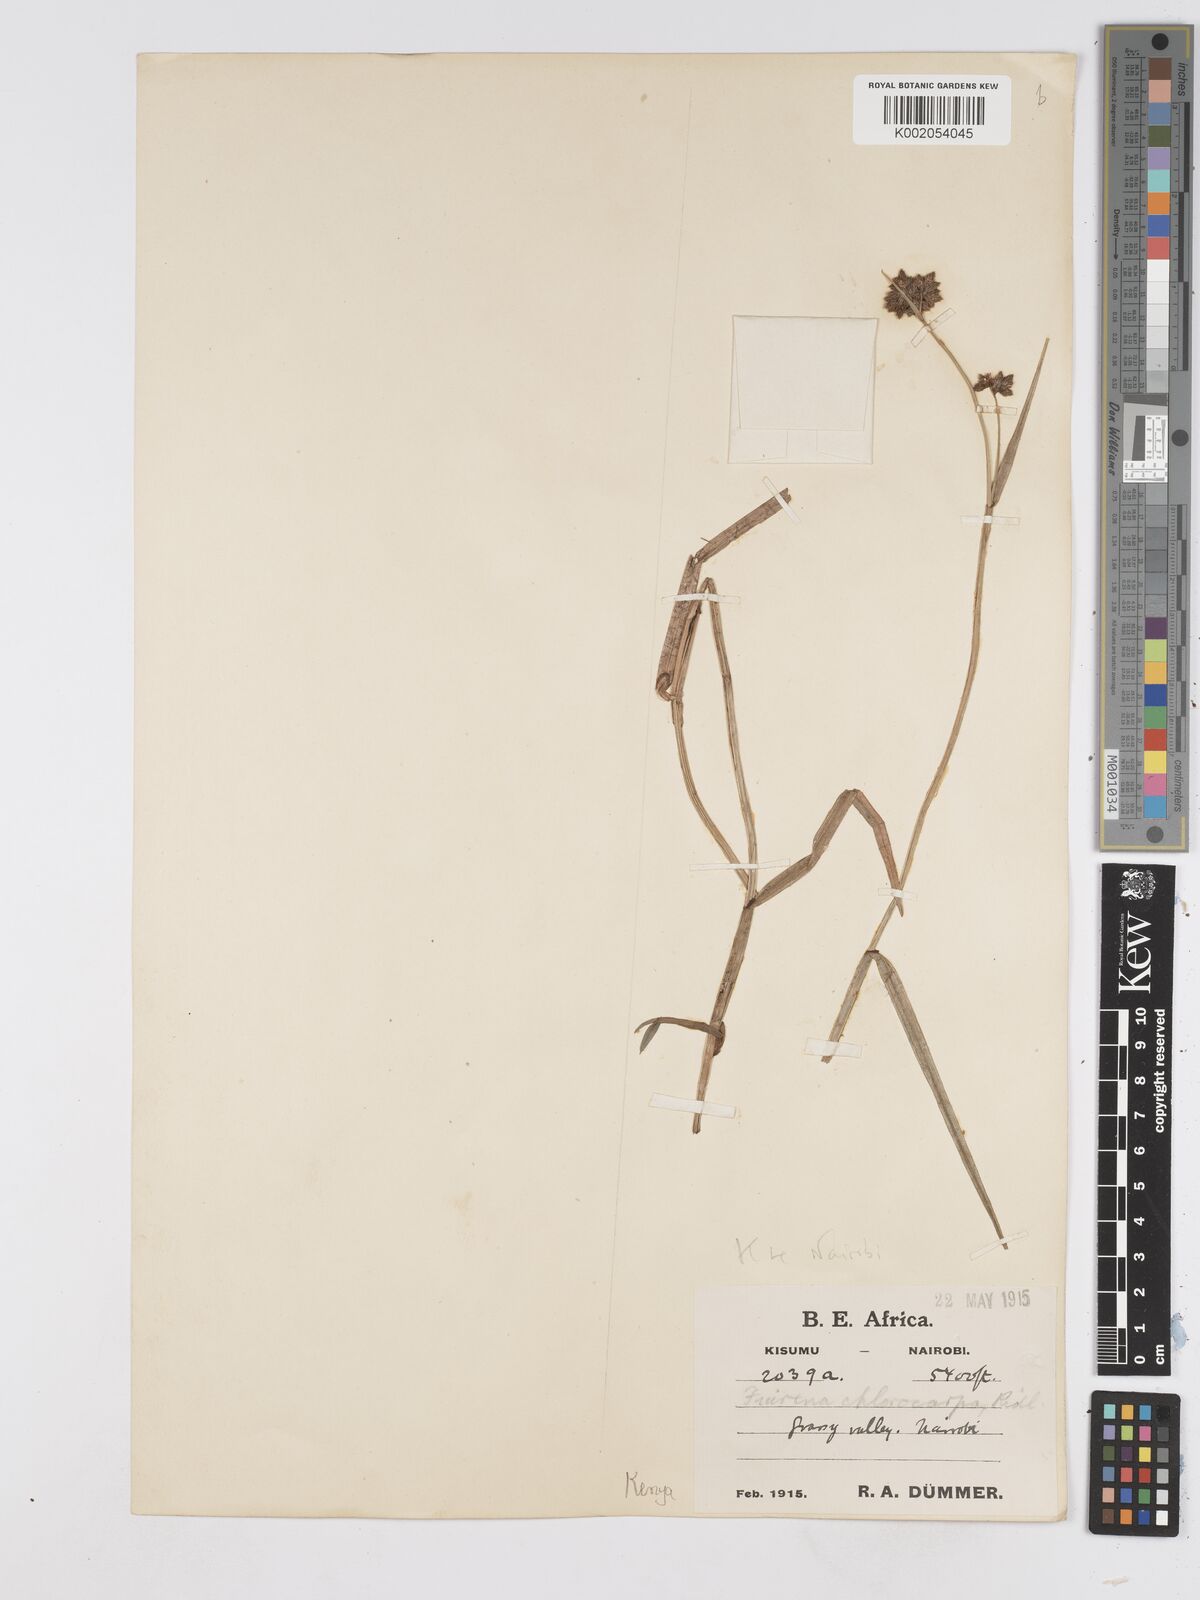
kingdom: Plantae
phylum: Tracheophyta
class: Liliopsida
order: Poales
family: Cyperaceae
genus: Fuirena
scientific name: Fuirena stricta
